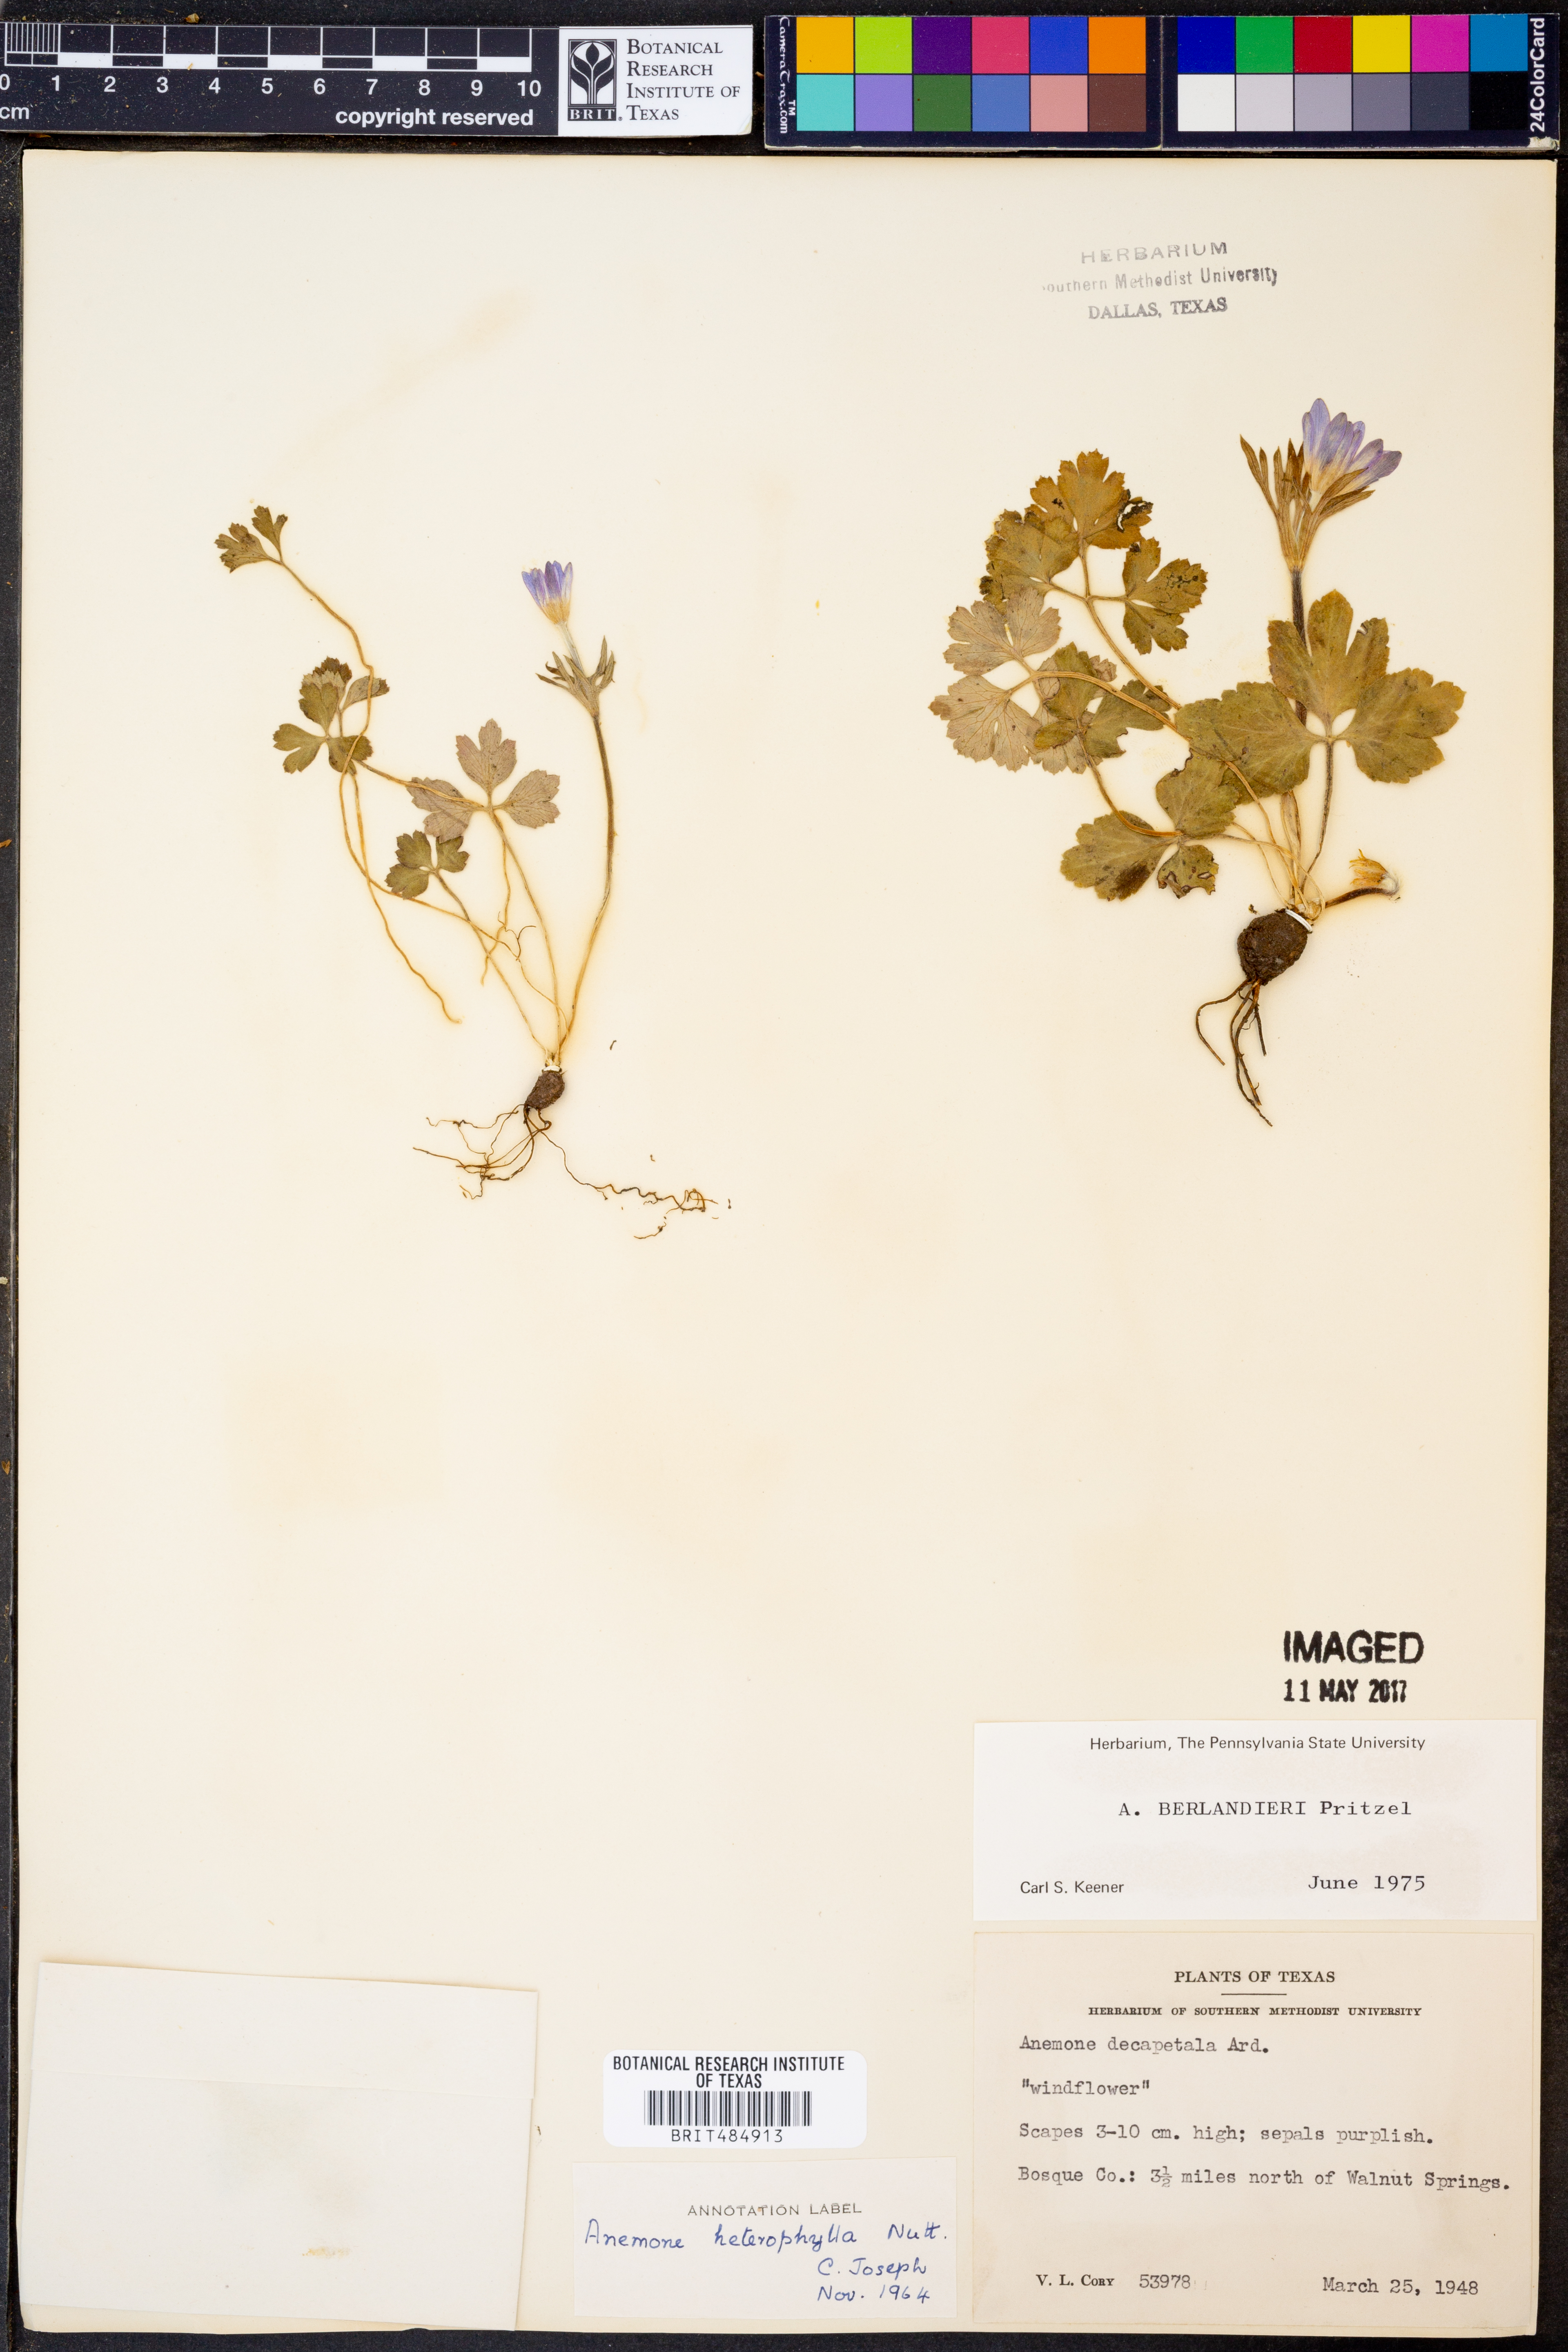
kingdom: Plantae
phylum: Tracheophyta
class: Magnoliopsida
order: Ranunculales
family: Ranunculaceae
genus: Anemone
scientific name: Anemone decapetala
